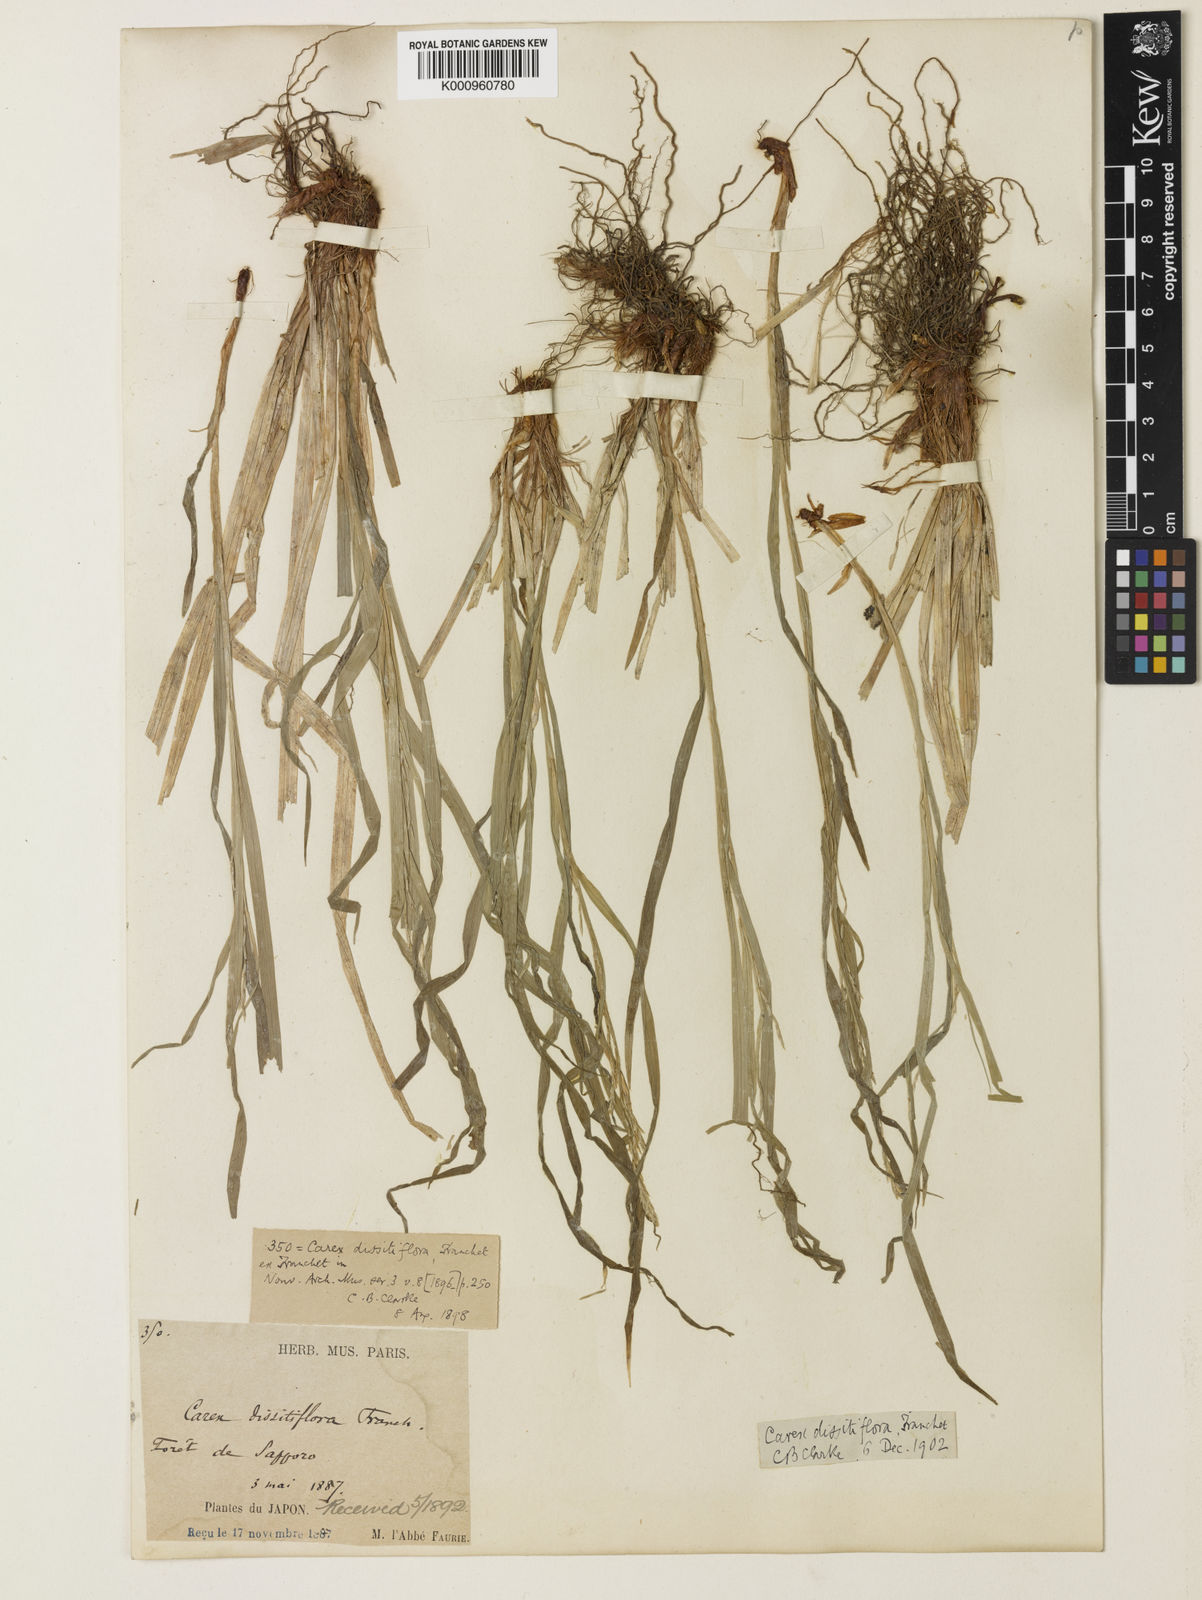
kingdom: Plantae
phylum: Tracheophyta
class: Liliopsida
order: Poales
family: Cyperaceae
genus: Carex
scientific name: Carex dissitiflora
